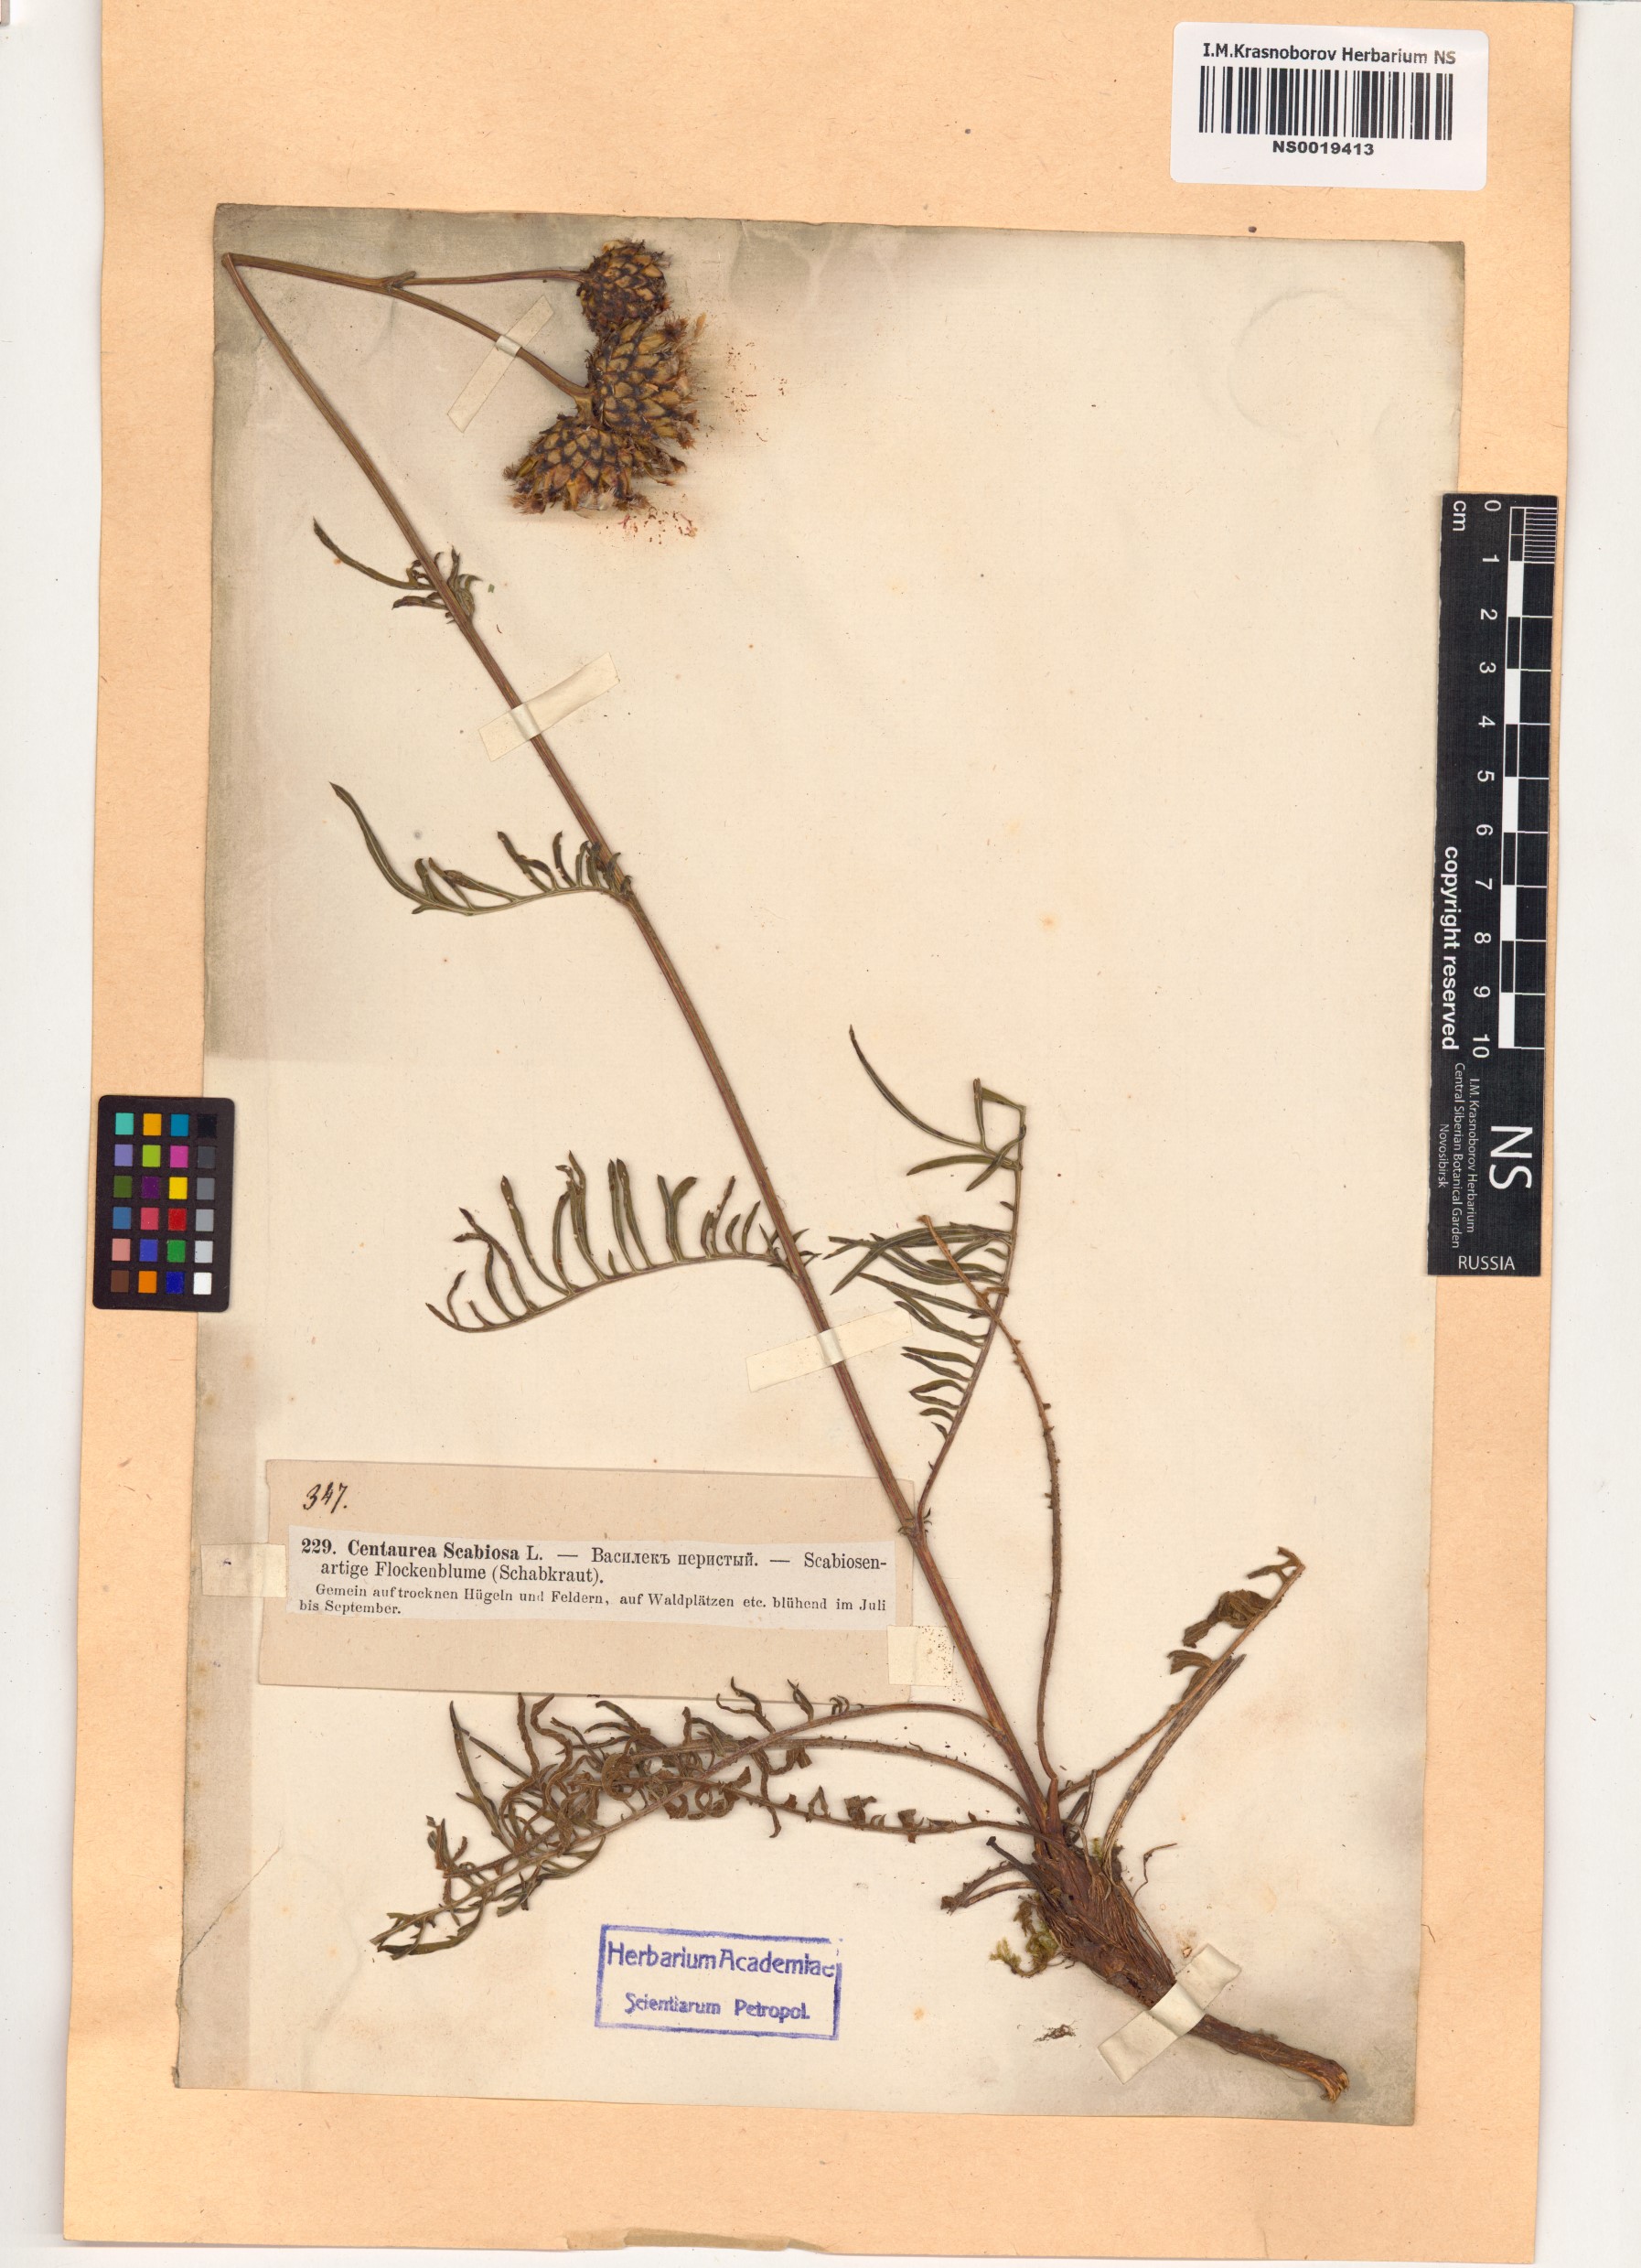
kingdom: Plantae
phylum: Tracheophyta
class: Magnoliopsida
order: Asterales
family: Asteraceae
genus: Centaurea
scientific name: Centaurea scabiosa
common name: Greater knapweed
